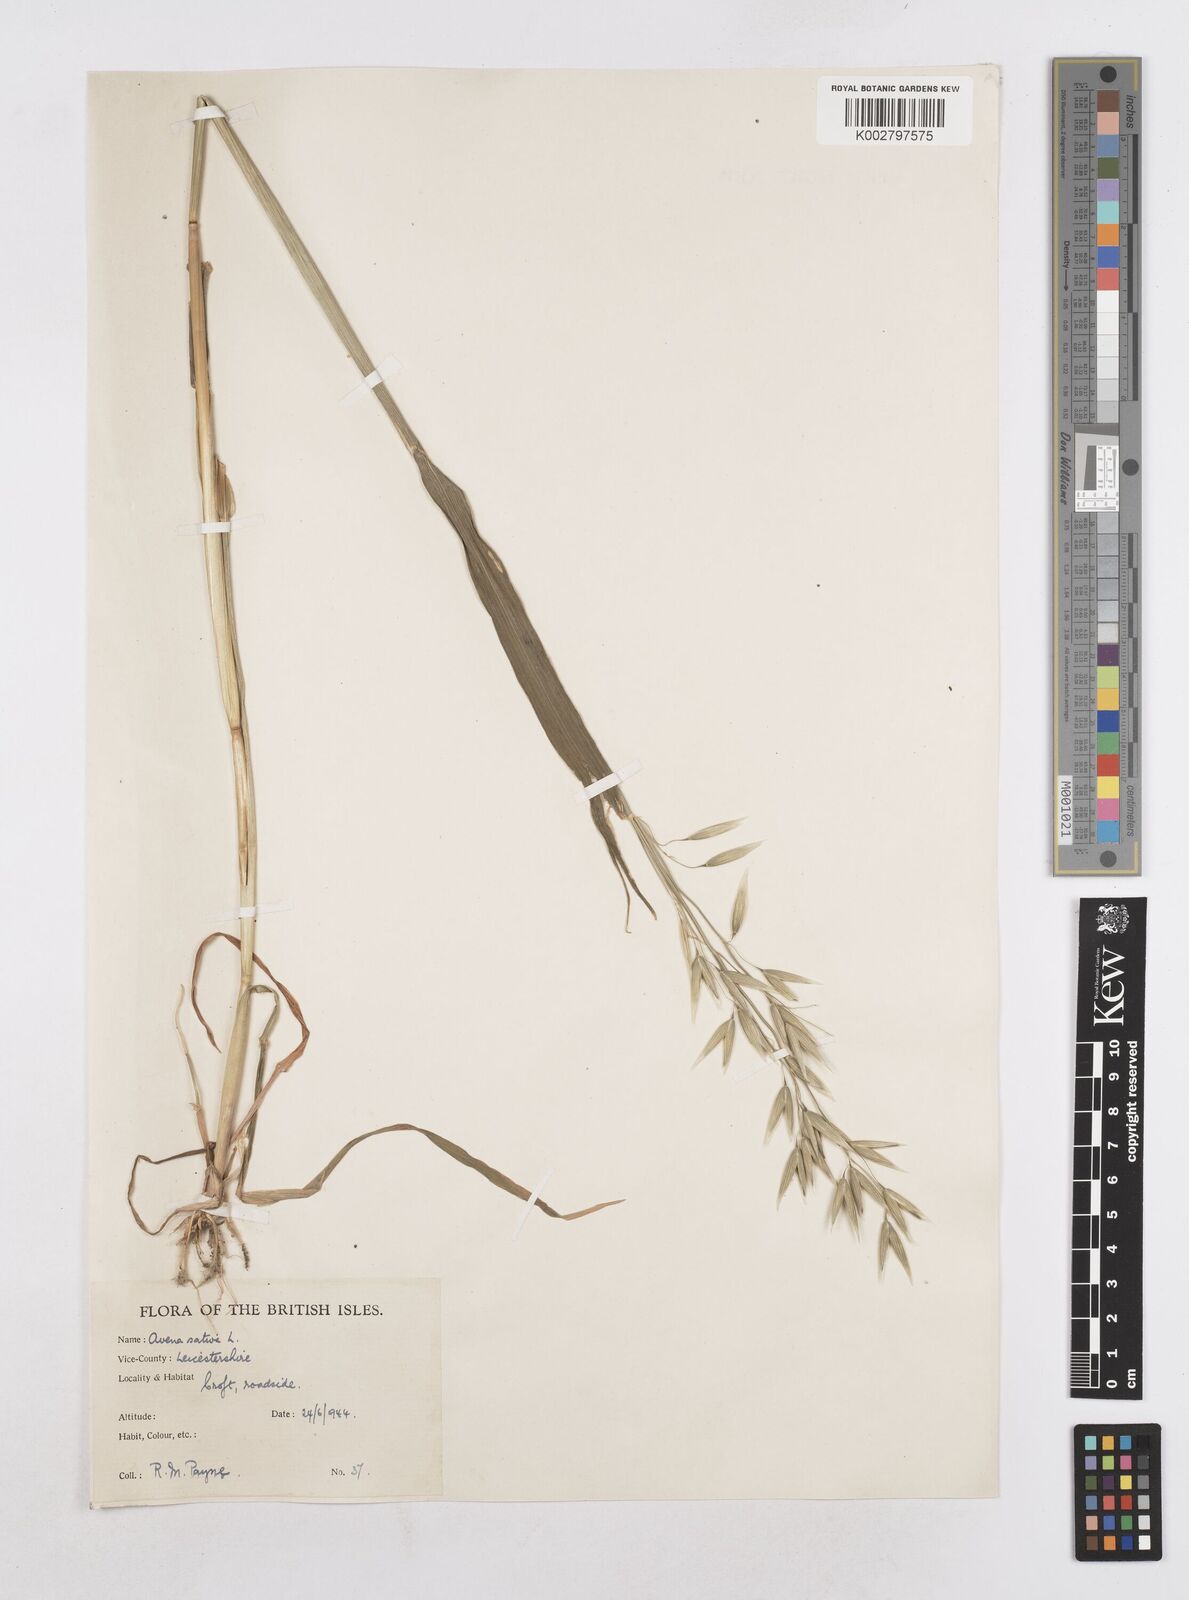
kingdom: Plantae
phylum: Tracheophyta
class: Liliopsida
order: Poales
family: Poaceae
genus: Avena
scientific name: Avena sativa
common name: Oat
